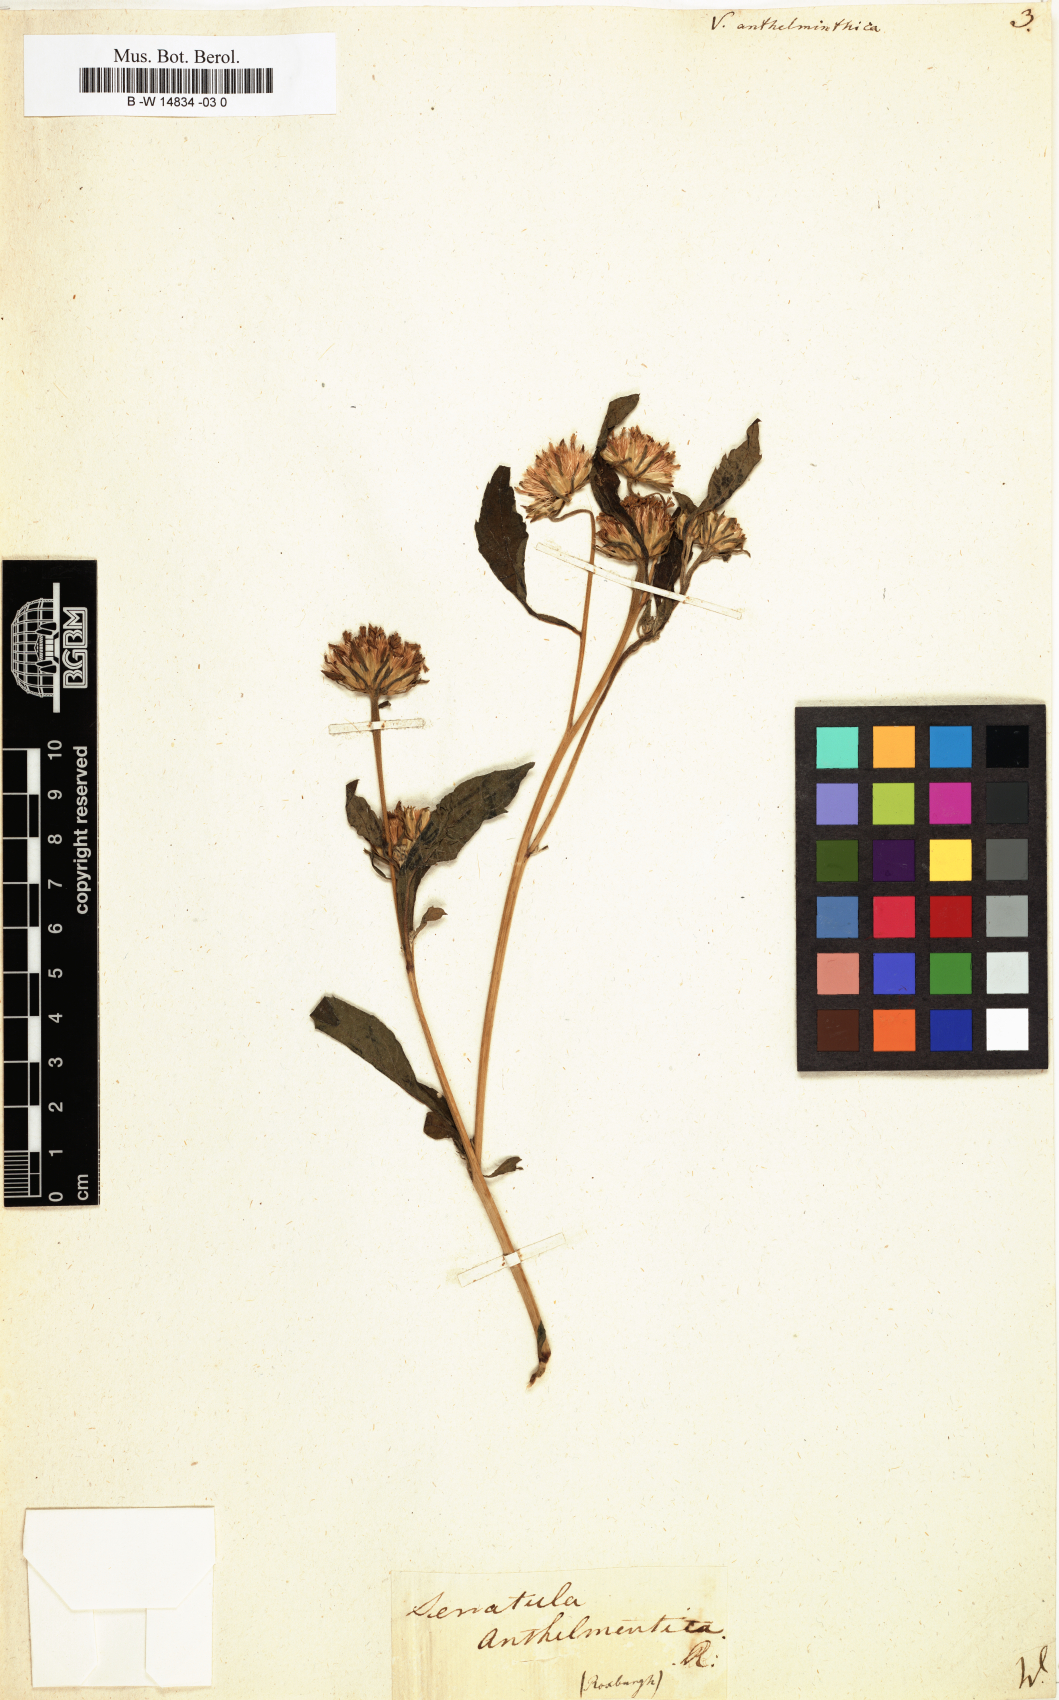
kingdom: Plantae
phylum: Tracheophyta
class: Magnoliopsida
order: Asterales
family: Asteraceae
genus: Baccharoides
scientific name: Baccharoides anthelmintica
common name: Kinka-oil
